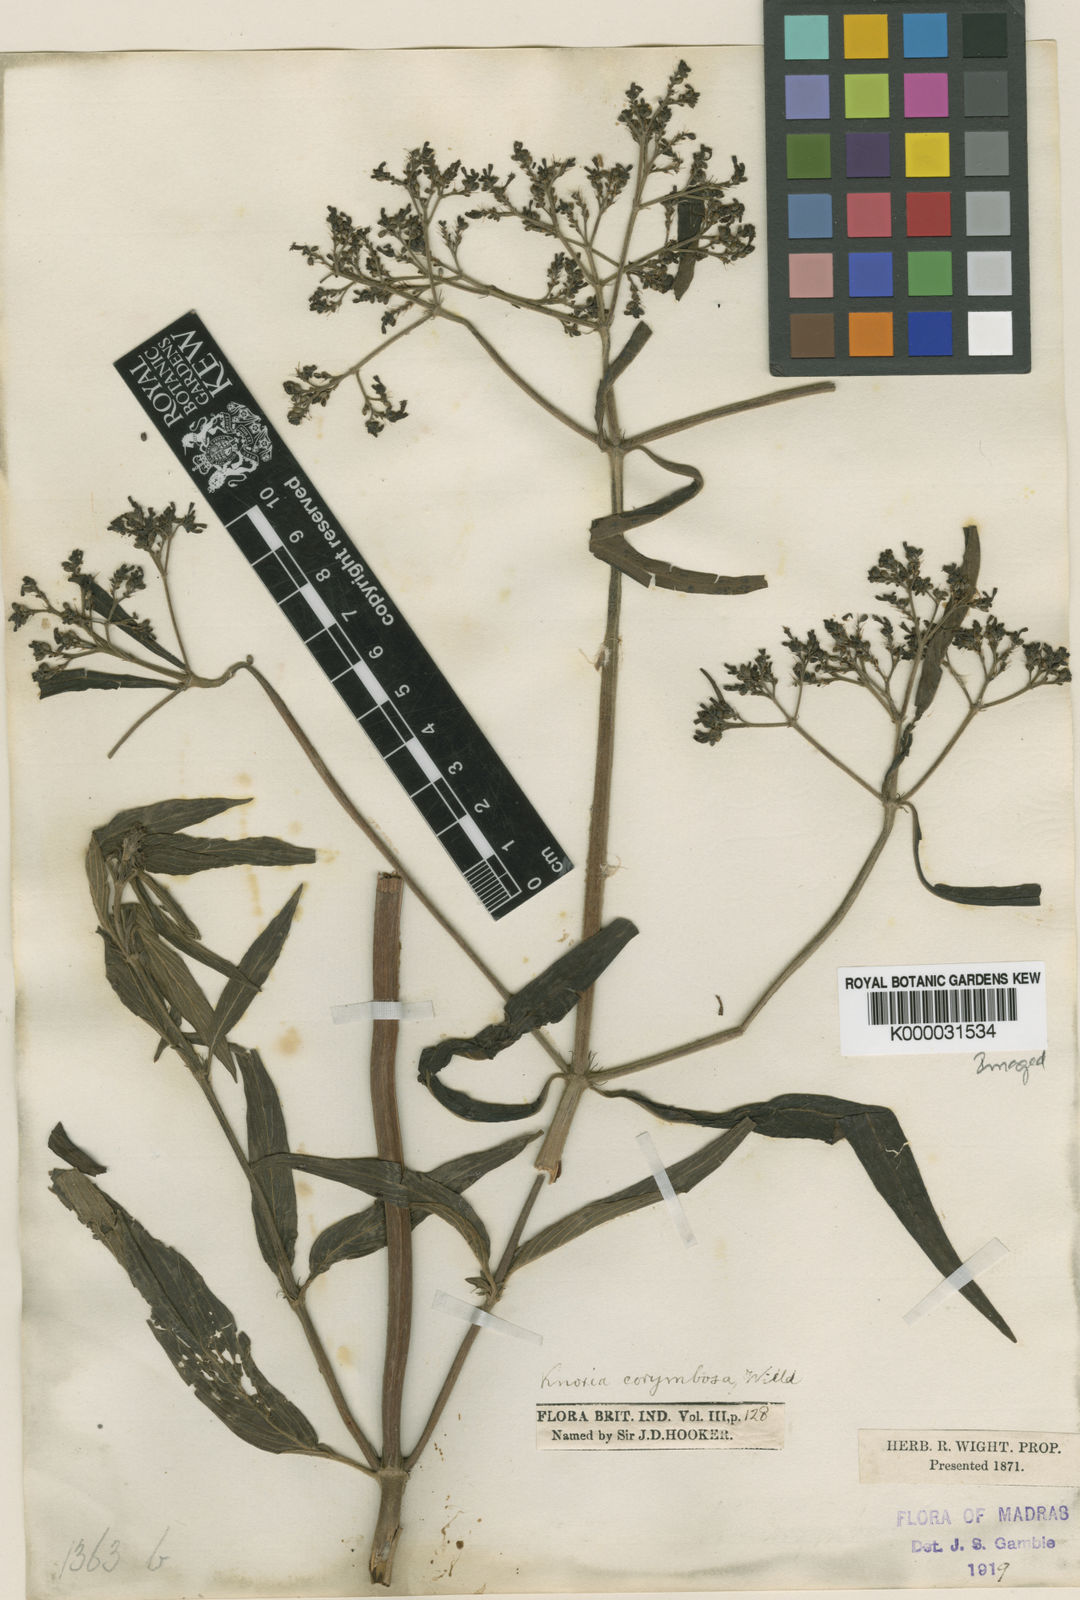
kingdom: Plantae
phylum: Tracheophyta
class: Magnoliopsida
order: Gentianales
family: Rubiaceae
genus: Knoxia
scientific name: Knoxia sumatrensis
